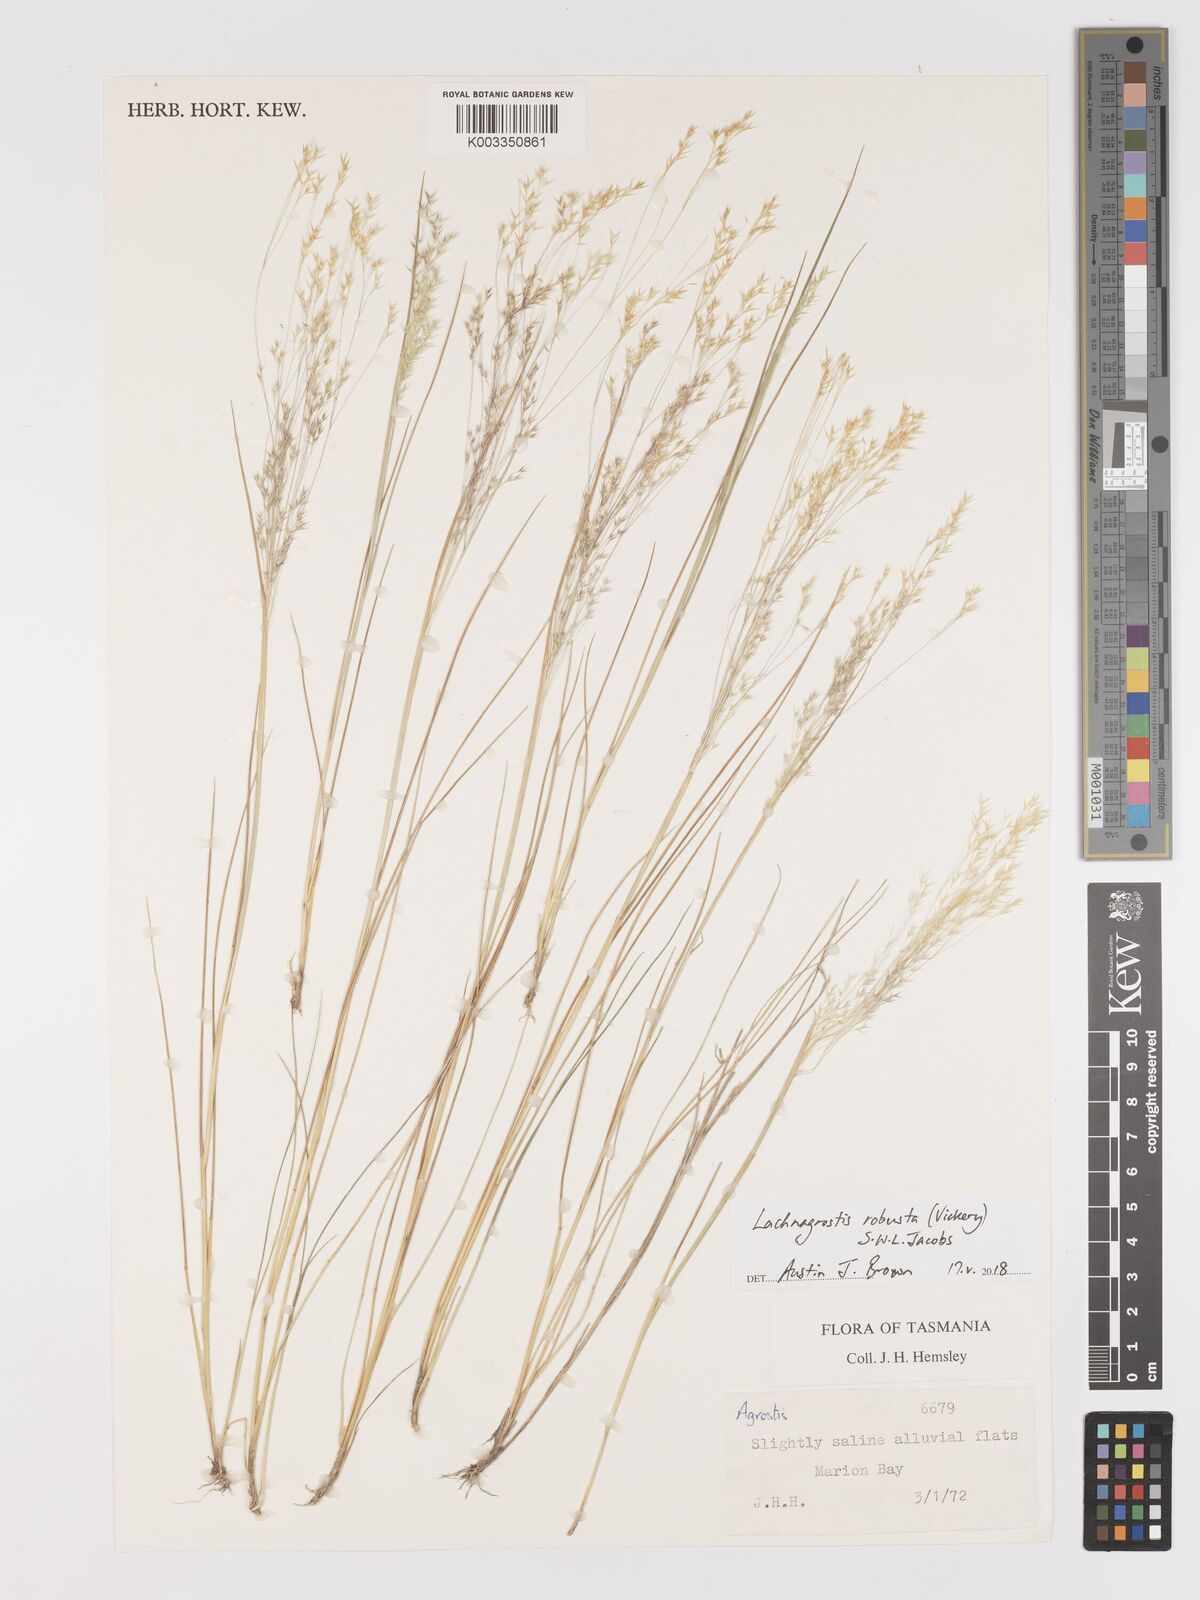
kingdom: Plantae
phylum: Tracheophyta
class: Liliopsida
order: Poales
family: Poaceae
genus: Lachnagrostis
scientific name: Lachnagrostis robusta
